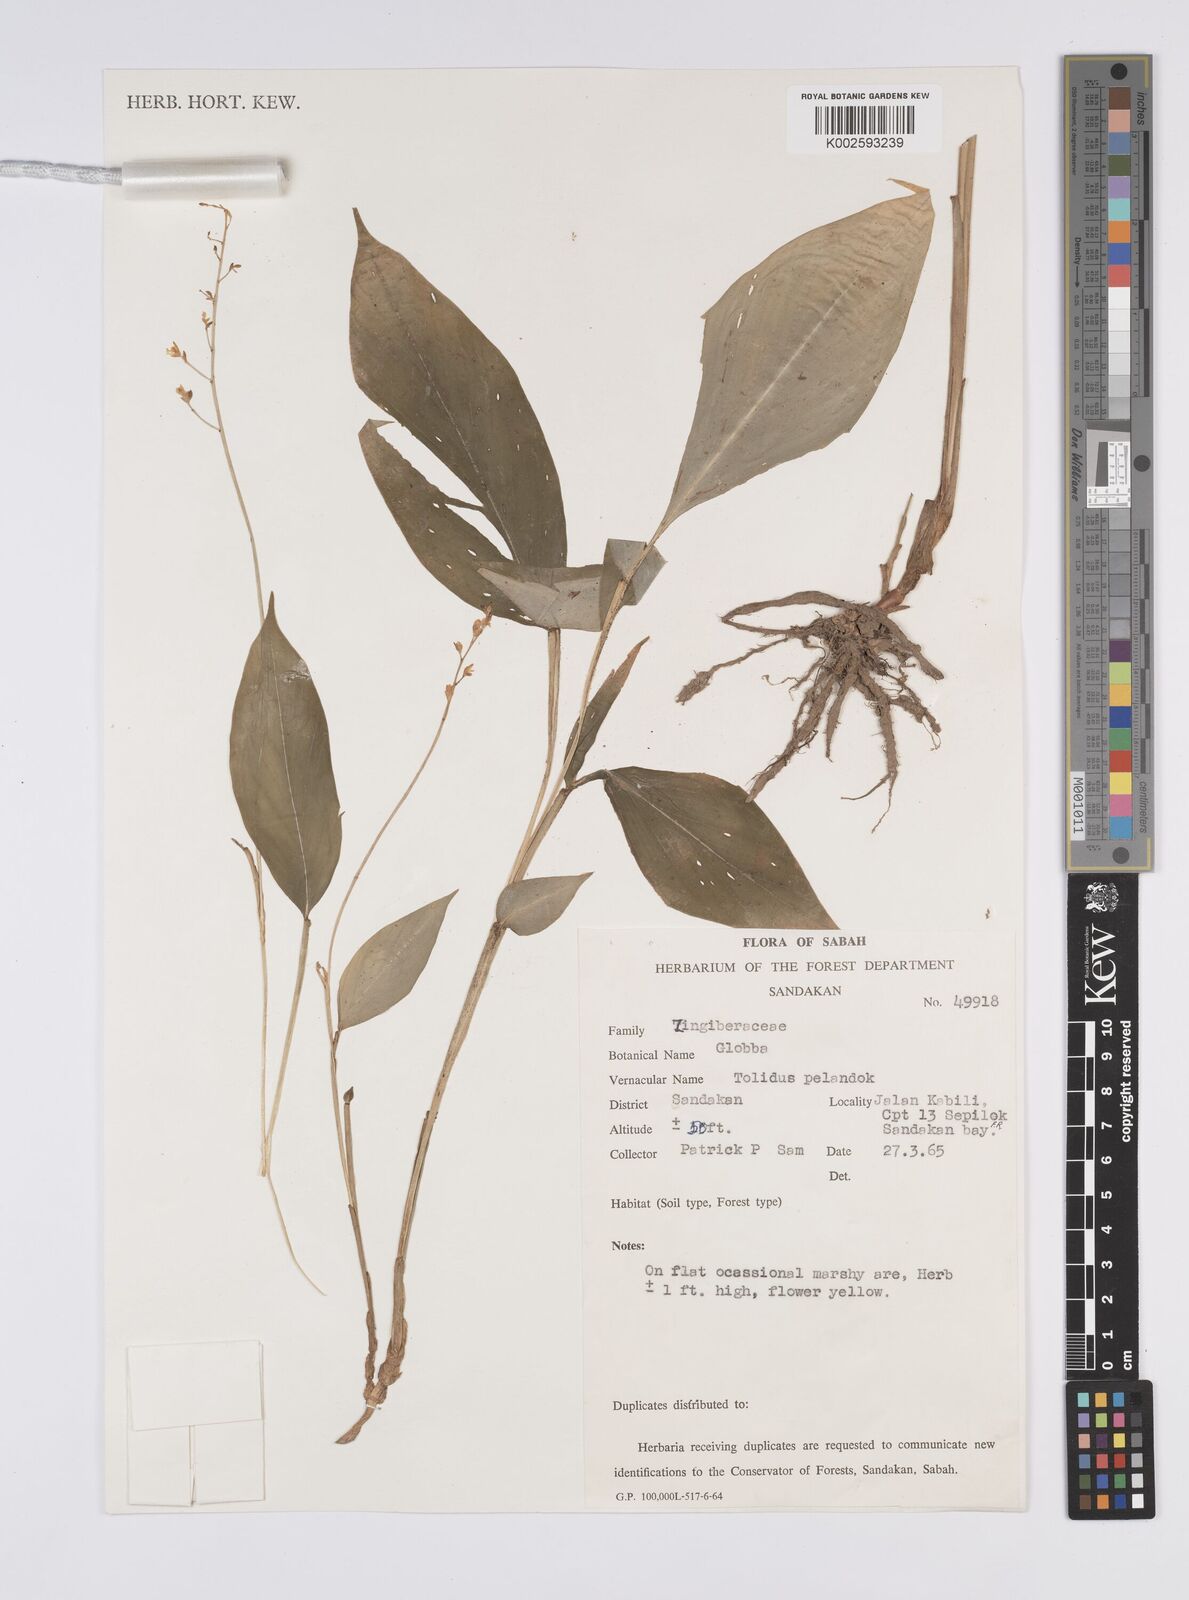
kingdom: Plantae
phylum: Tracheophyta
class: Liliopsida
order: Zingiberales
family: Zingiberaceae
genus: Globba
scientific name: Globba
